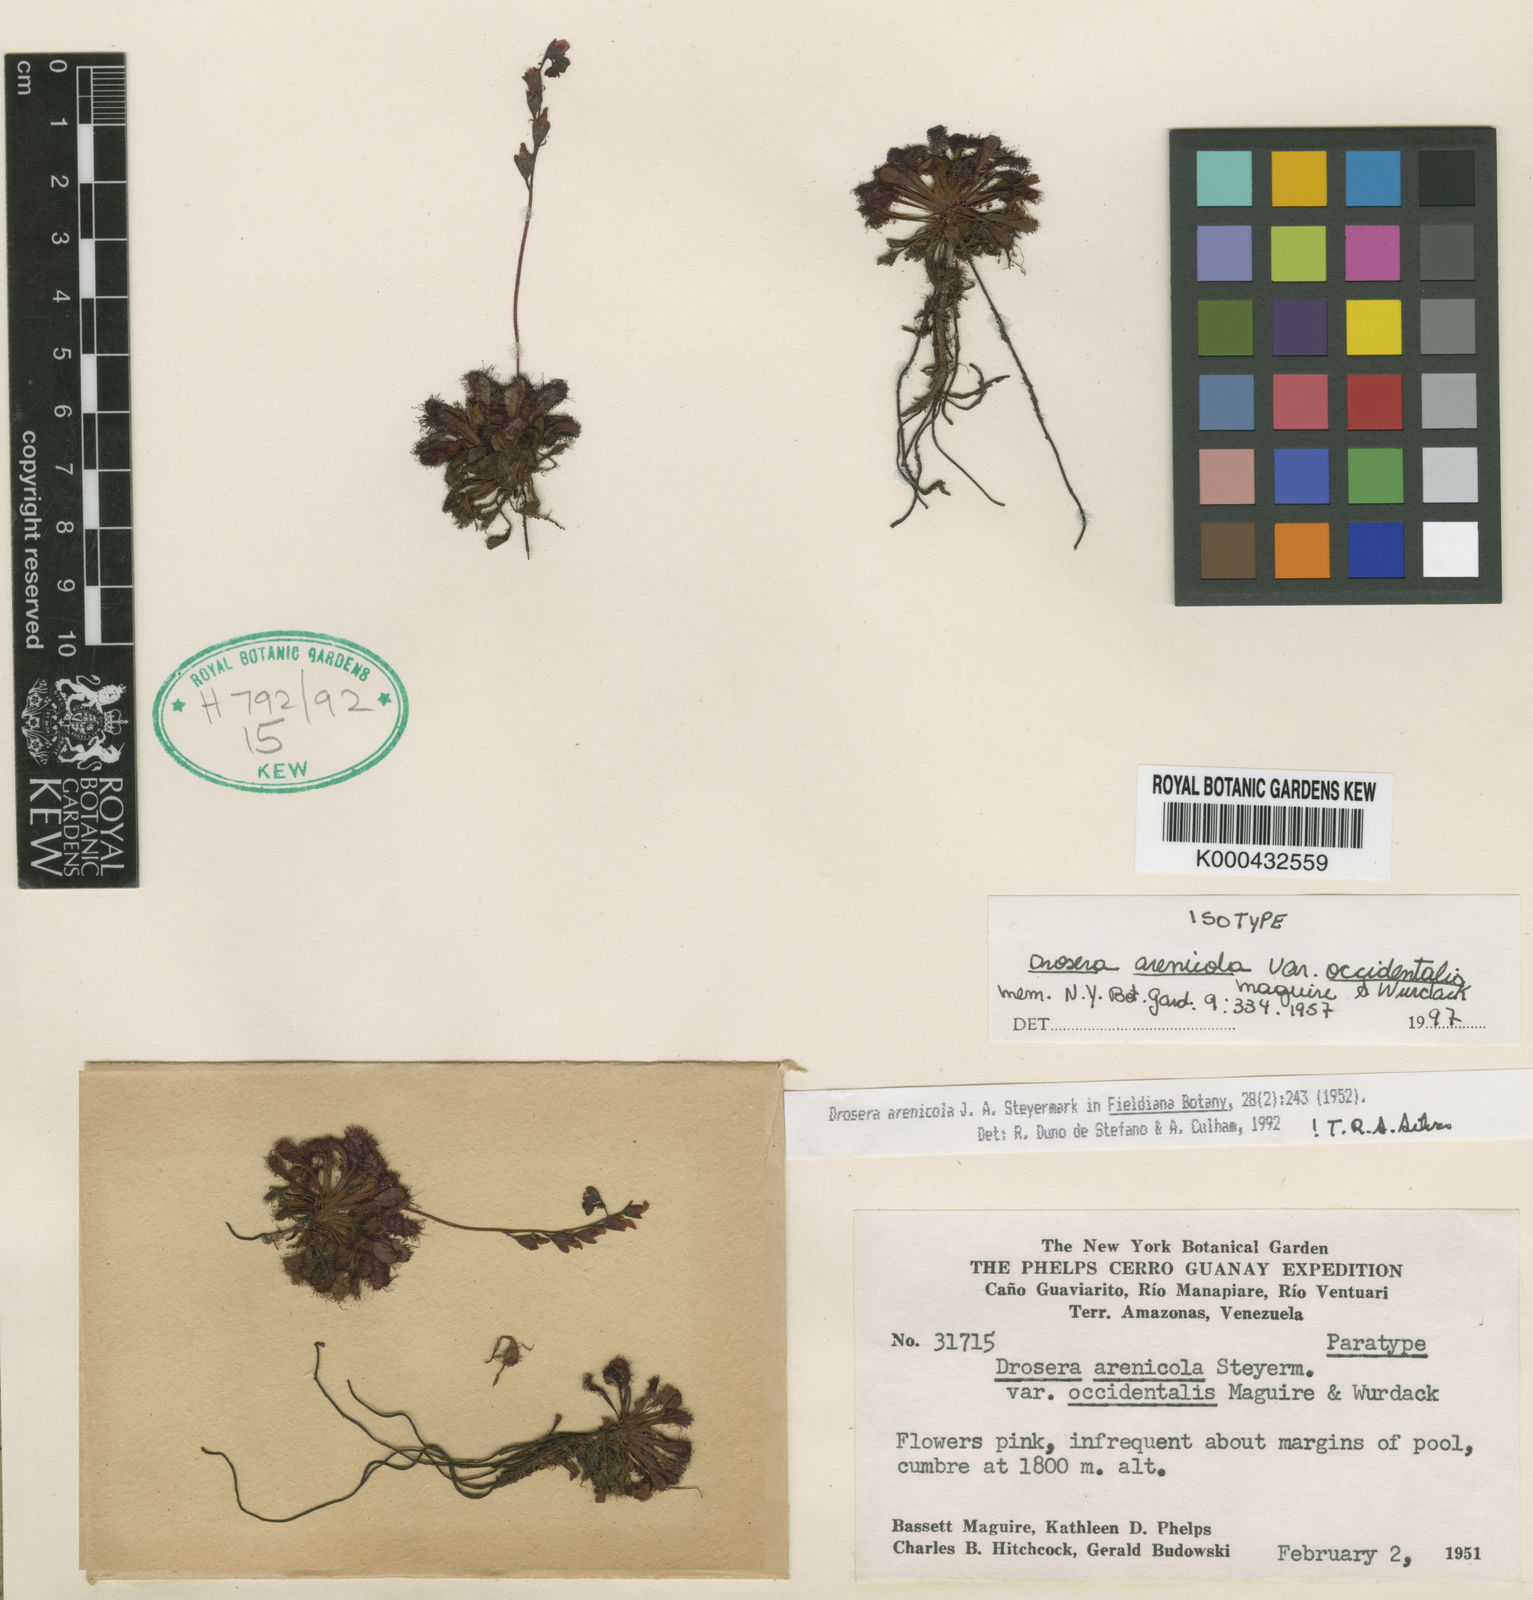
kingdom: Plantae
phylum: Tracheophyta
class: Magnoliopsida
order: Caryophyllales
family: Droseraceae
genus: Drosera
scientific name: Drosera arenicola
